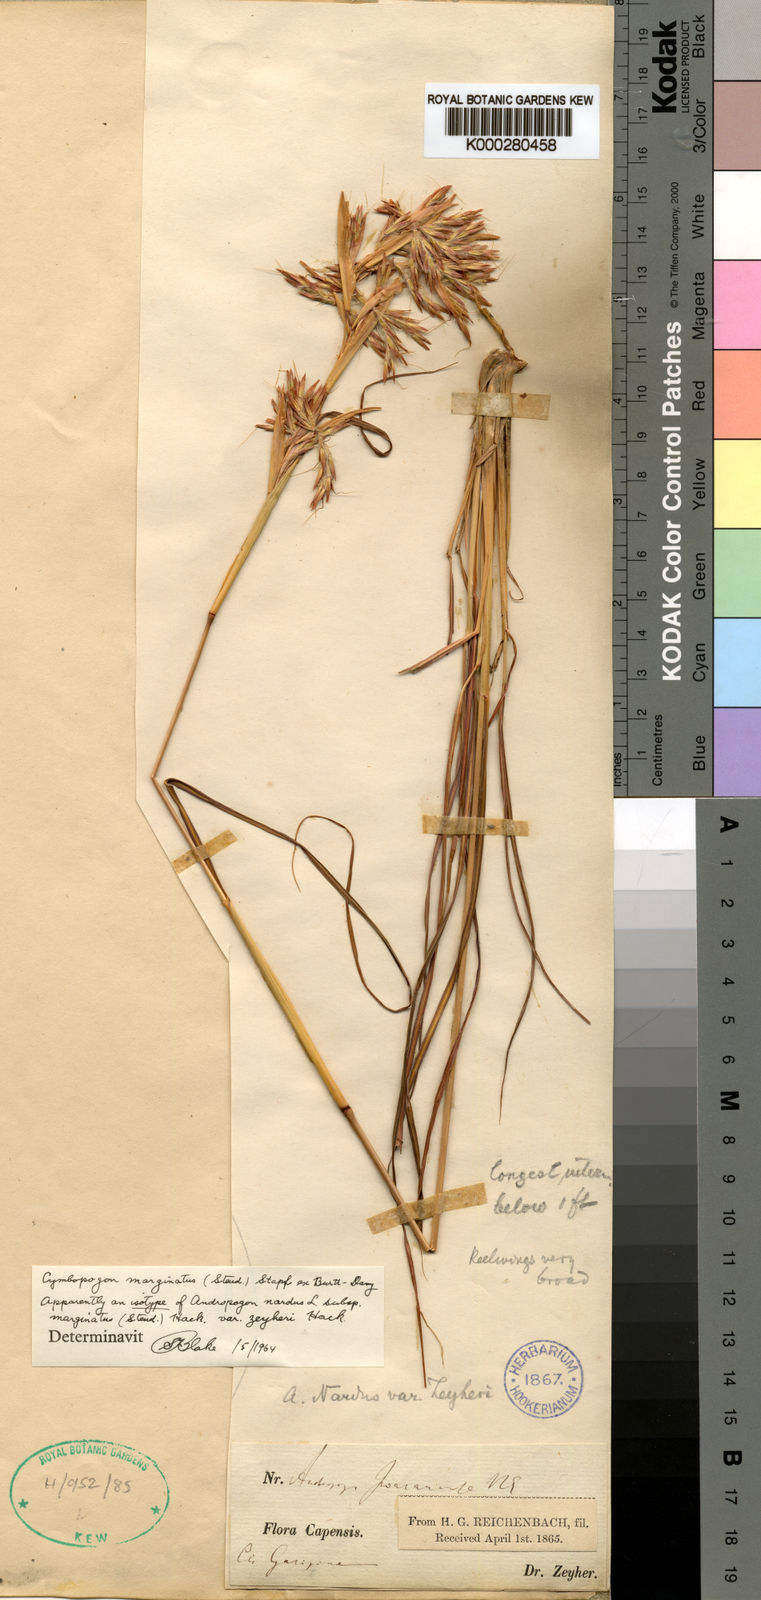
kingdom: Plantae
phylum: Tracheophyta
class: Liliopsida
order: Poales
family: Poaceae
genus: Cymbopogon
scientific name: Cymbopogon nardus
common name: Giant turpentine grass
